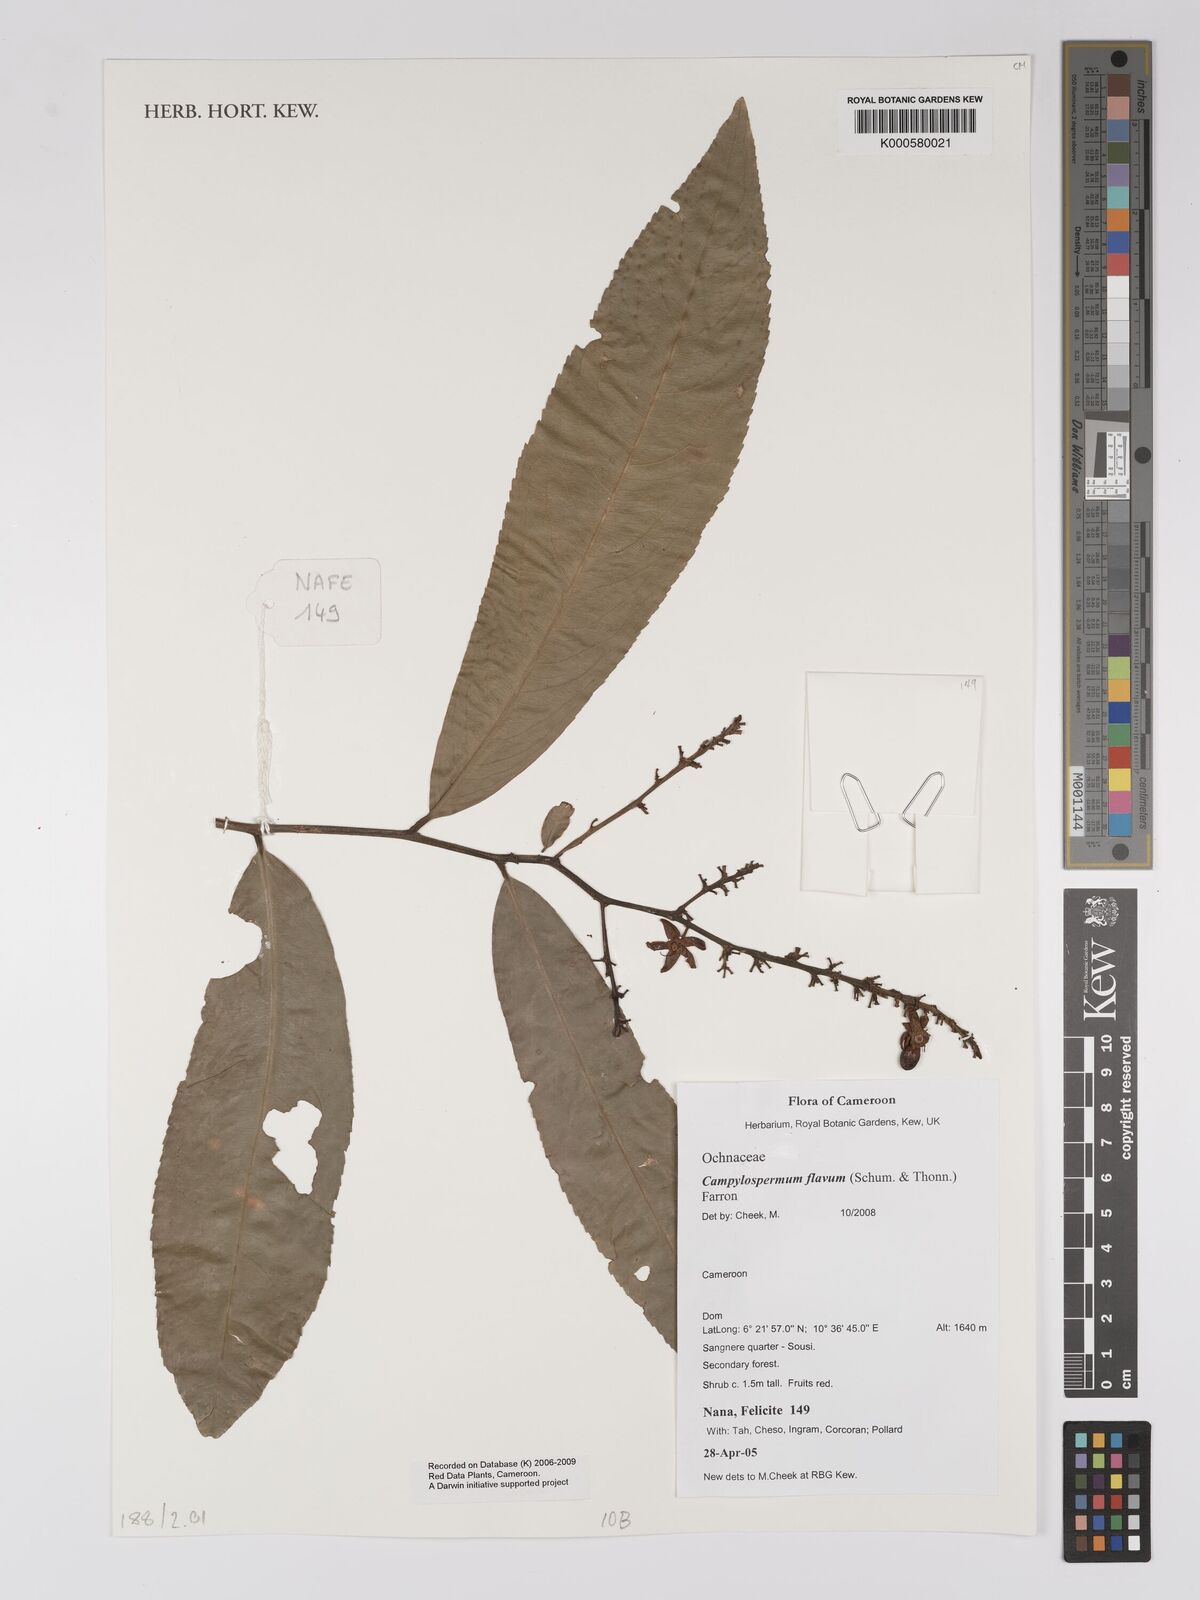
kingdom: Plantae
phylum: Tracheophyta
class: Magnoliopsida
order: Malpighiales
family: Ochnaceae
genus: Campylospermum
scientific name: Campylospermum flavum
